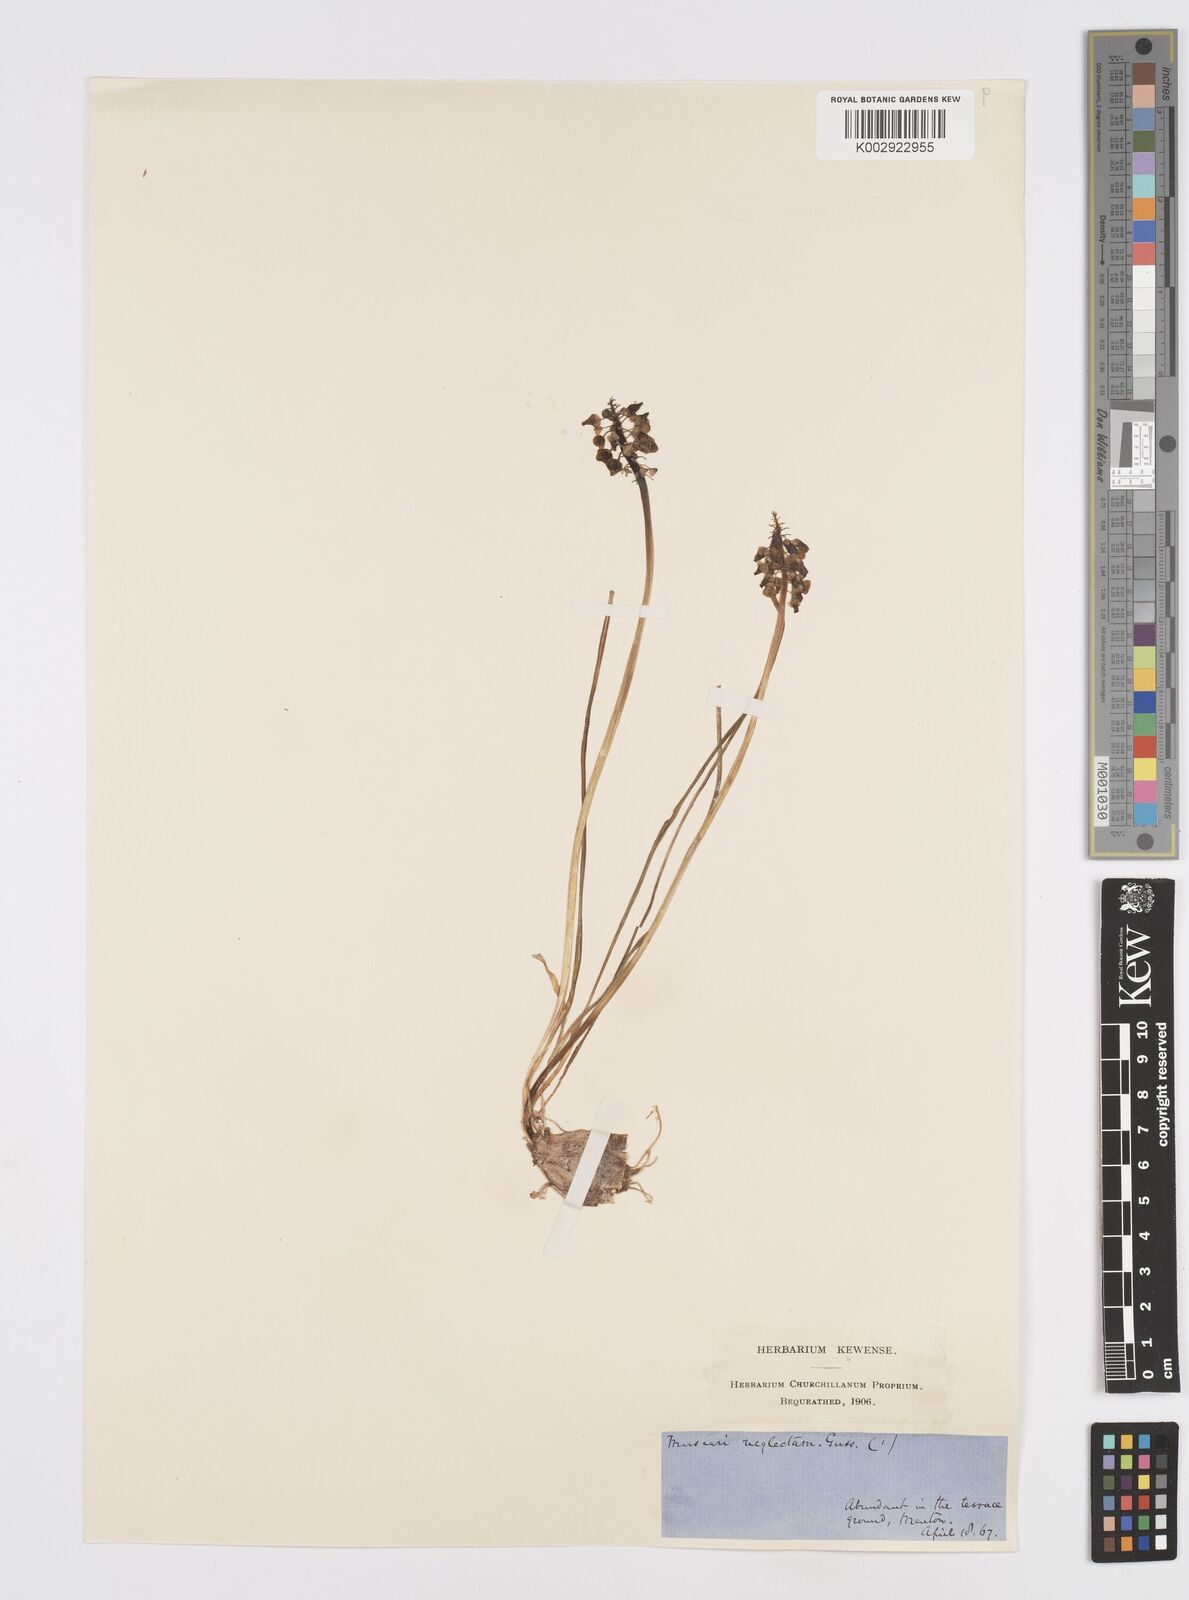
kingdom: Plantae
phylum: Tracheophyta
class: Liliopsida
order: Asparagales
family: Asparagaceae
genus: Muscari
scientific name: Muscari neglectum
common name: Grape-hyacinth
